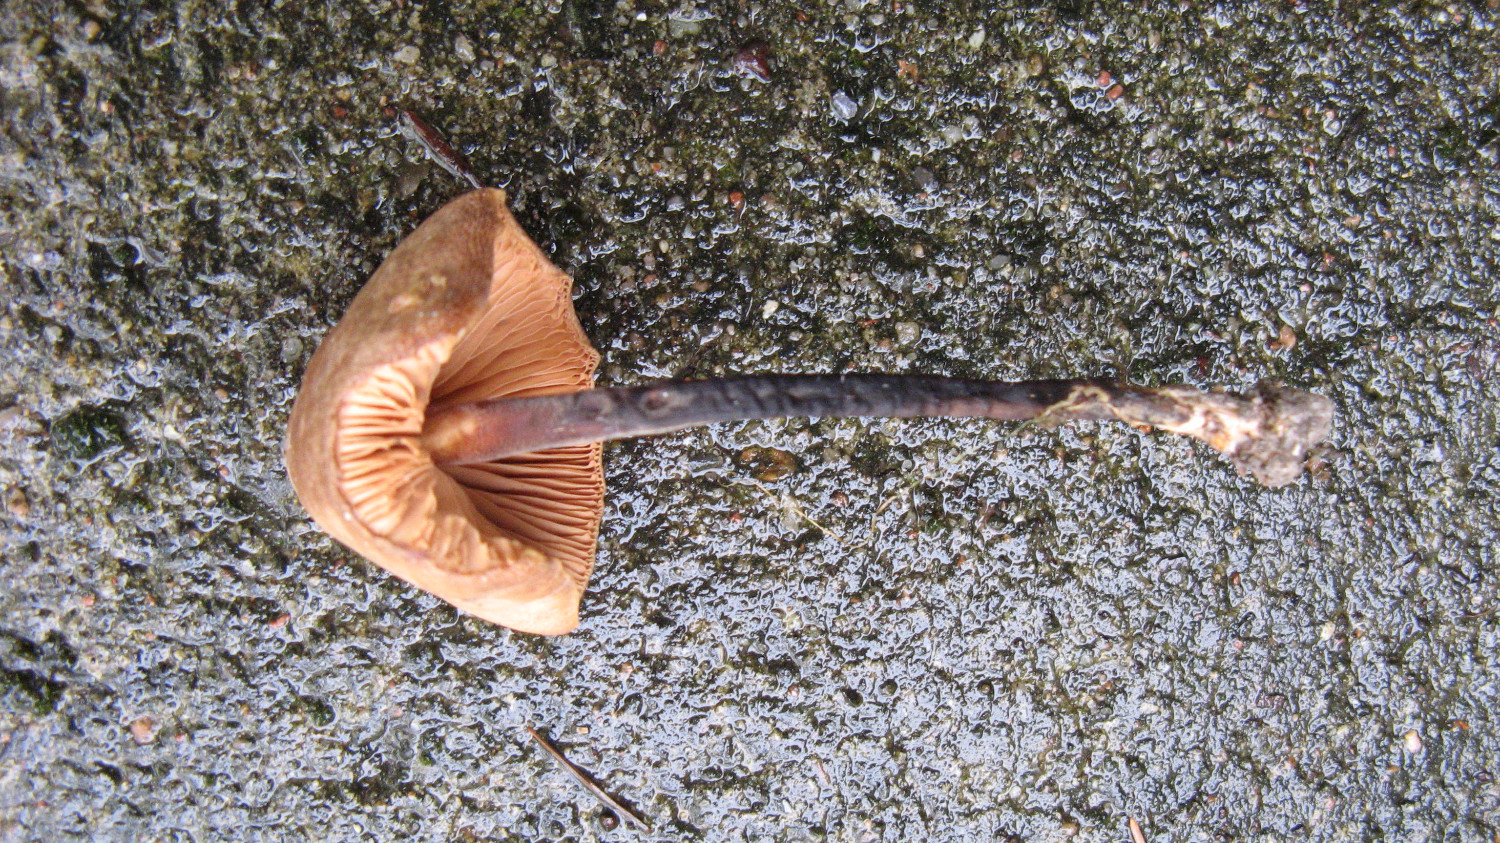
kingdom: Fungi
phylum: Basidiomycota
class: Agaricomycetes
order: Agaricales
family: Macrocystidiaceae
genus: Macrocystidia
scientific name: Macrocystidia cucumis
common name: agurkehat
